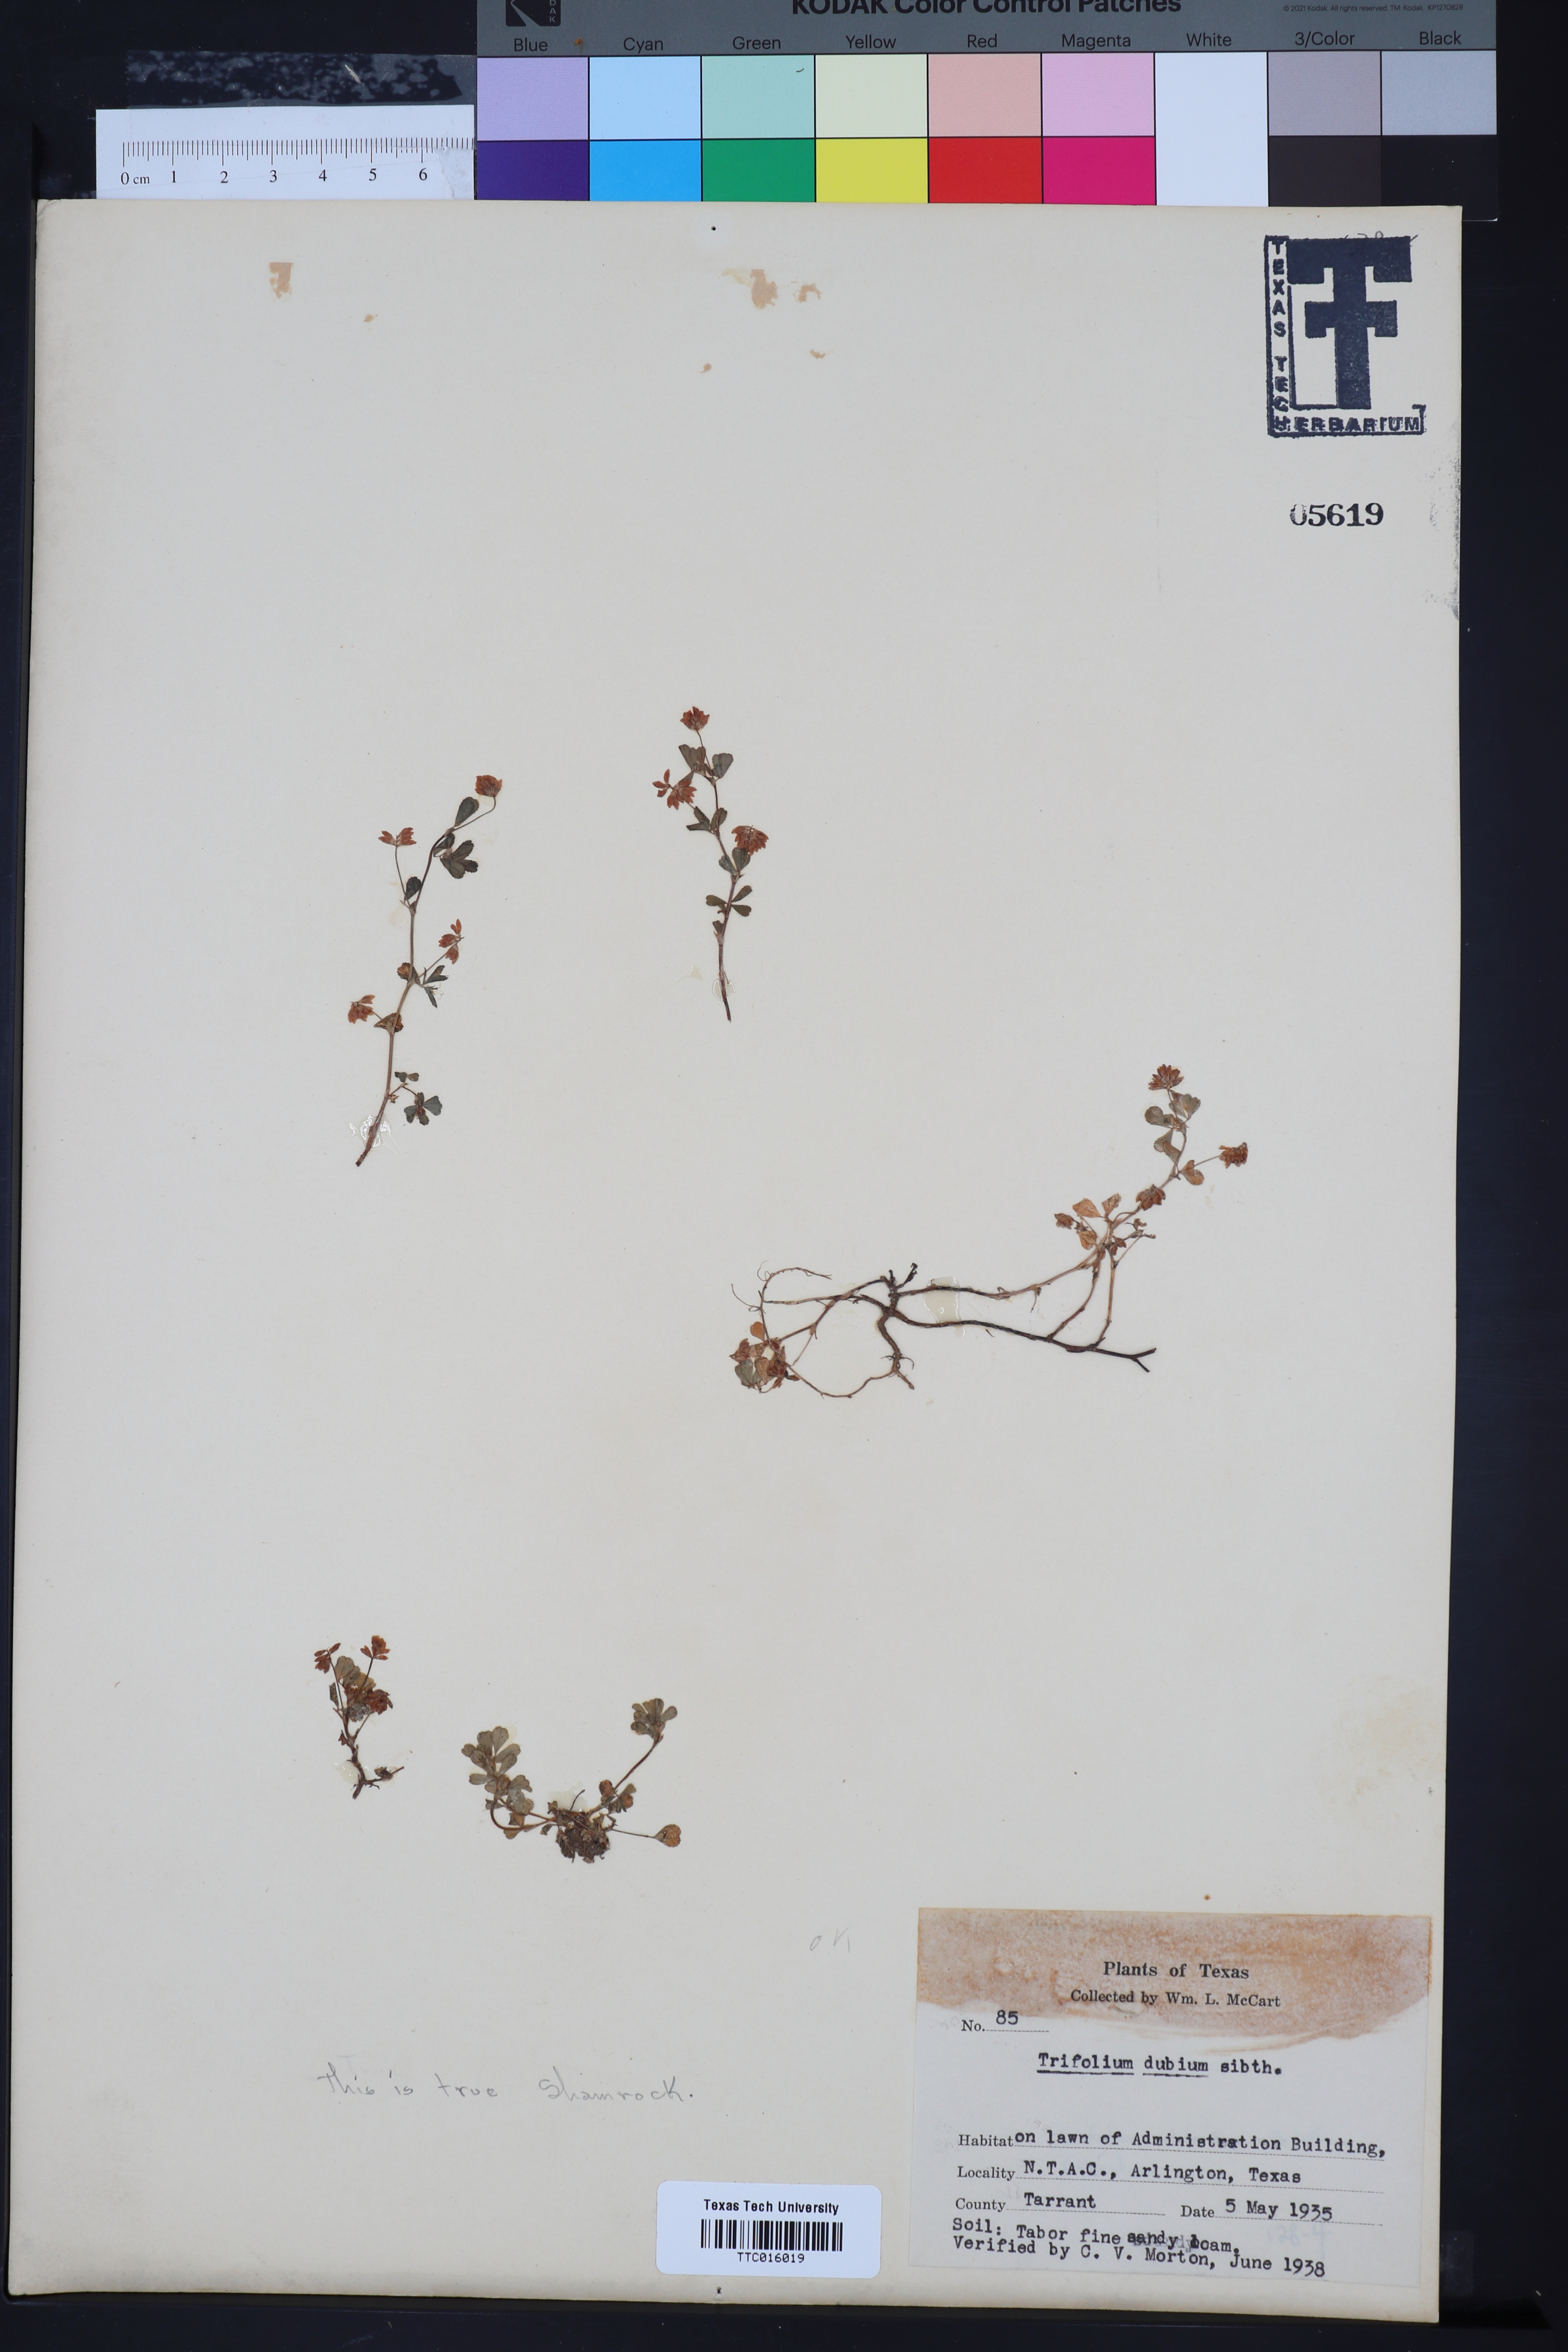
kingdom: Plantae
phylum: Tracheophyta
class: Magnoliopsida
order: Fabales
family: Fabaceae
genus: Trifolium
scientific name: Trifolium dubium
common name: Suckling clover
